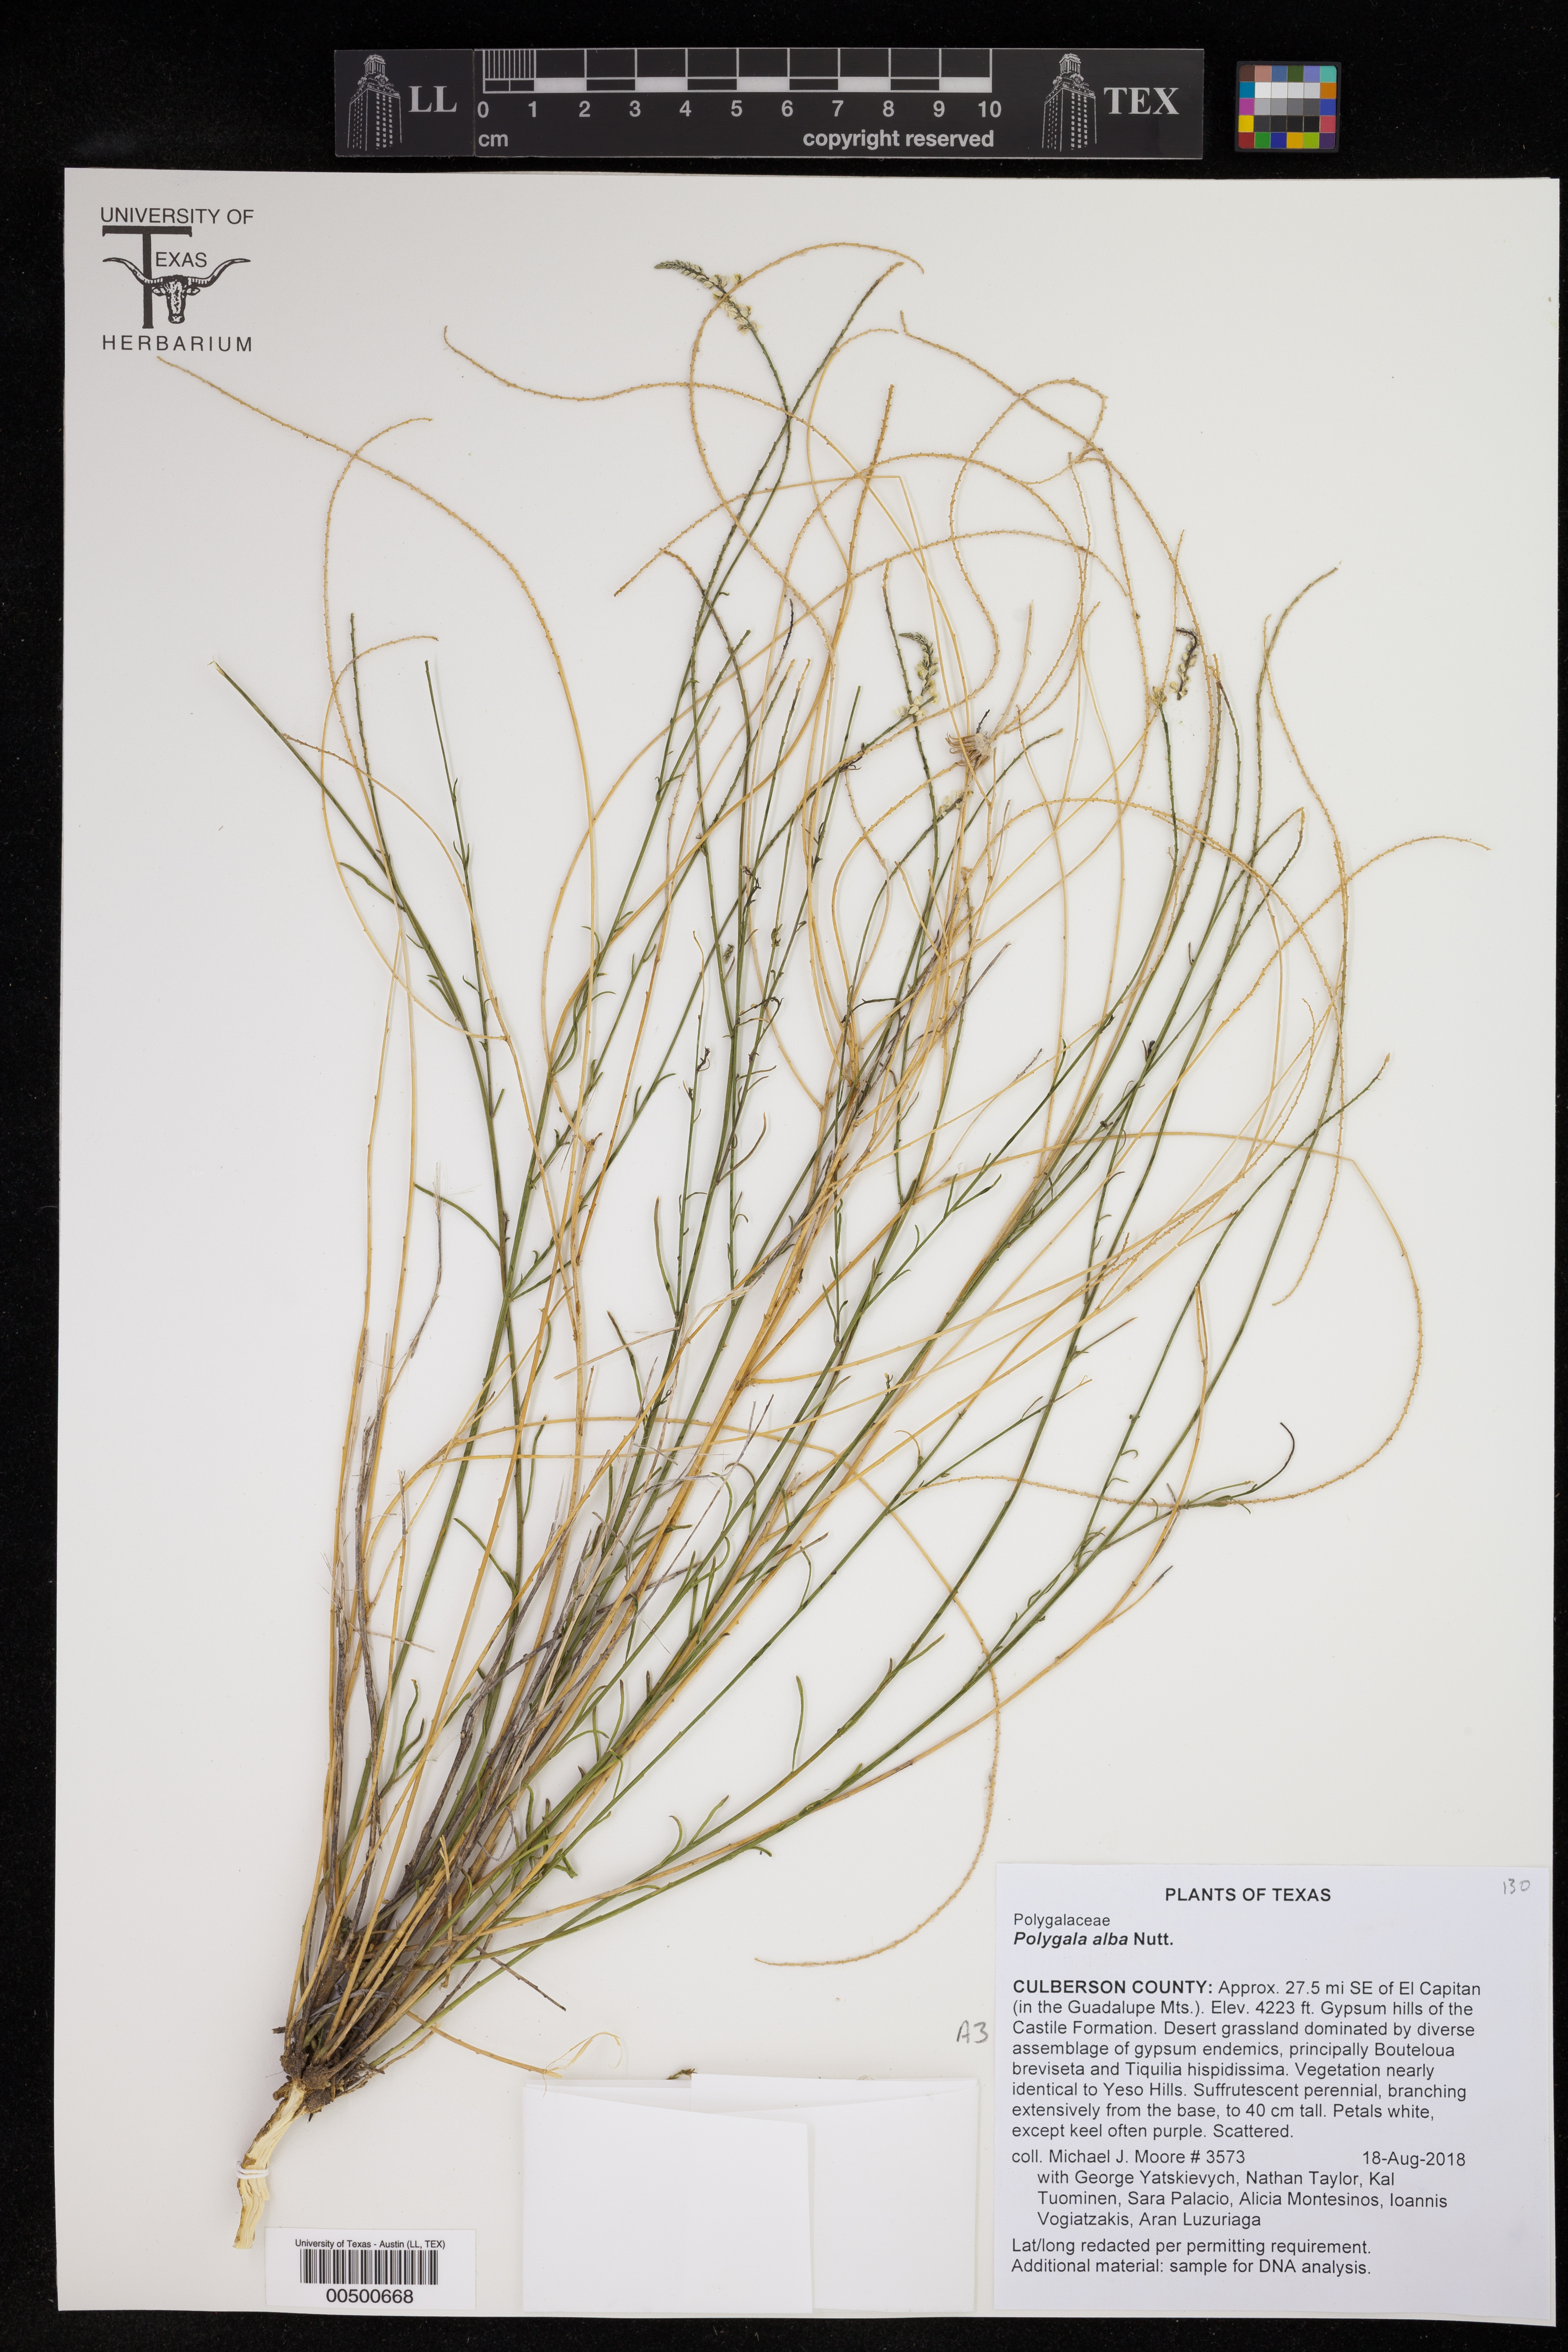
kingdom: Plantae
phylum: Tracheophyta
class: Magnoliopsida
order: Fabales
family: Polygalaceae
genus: Polygala
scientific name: Polygala alba
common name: White milkwort
